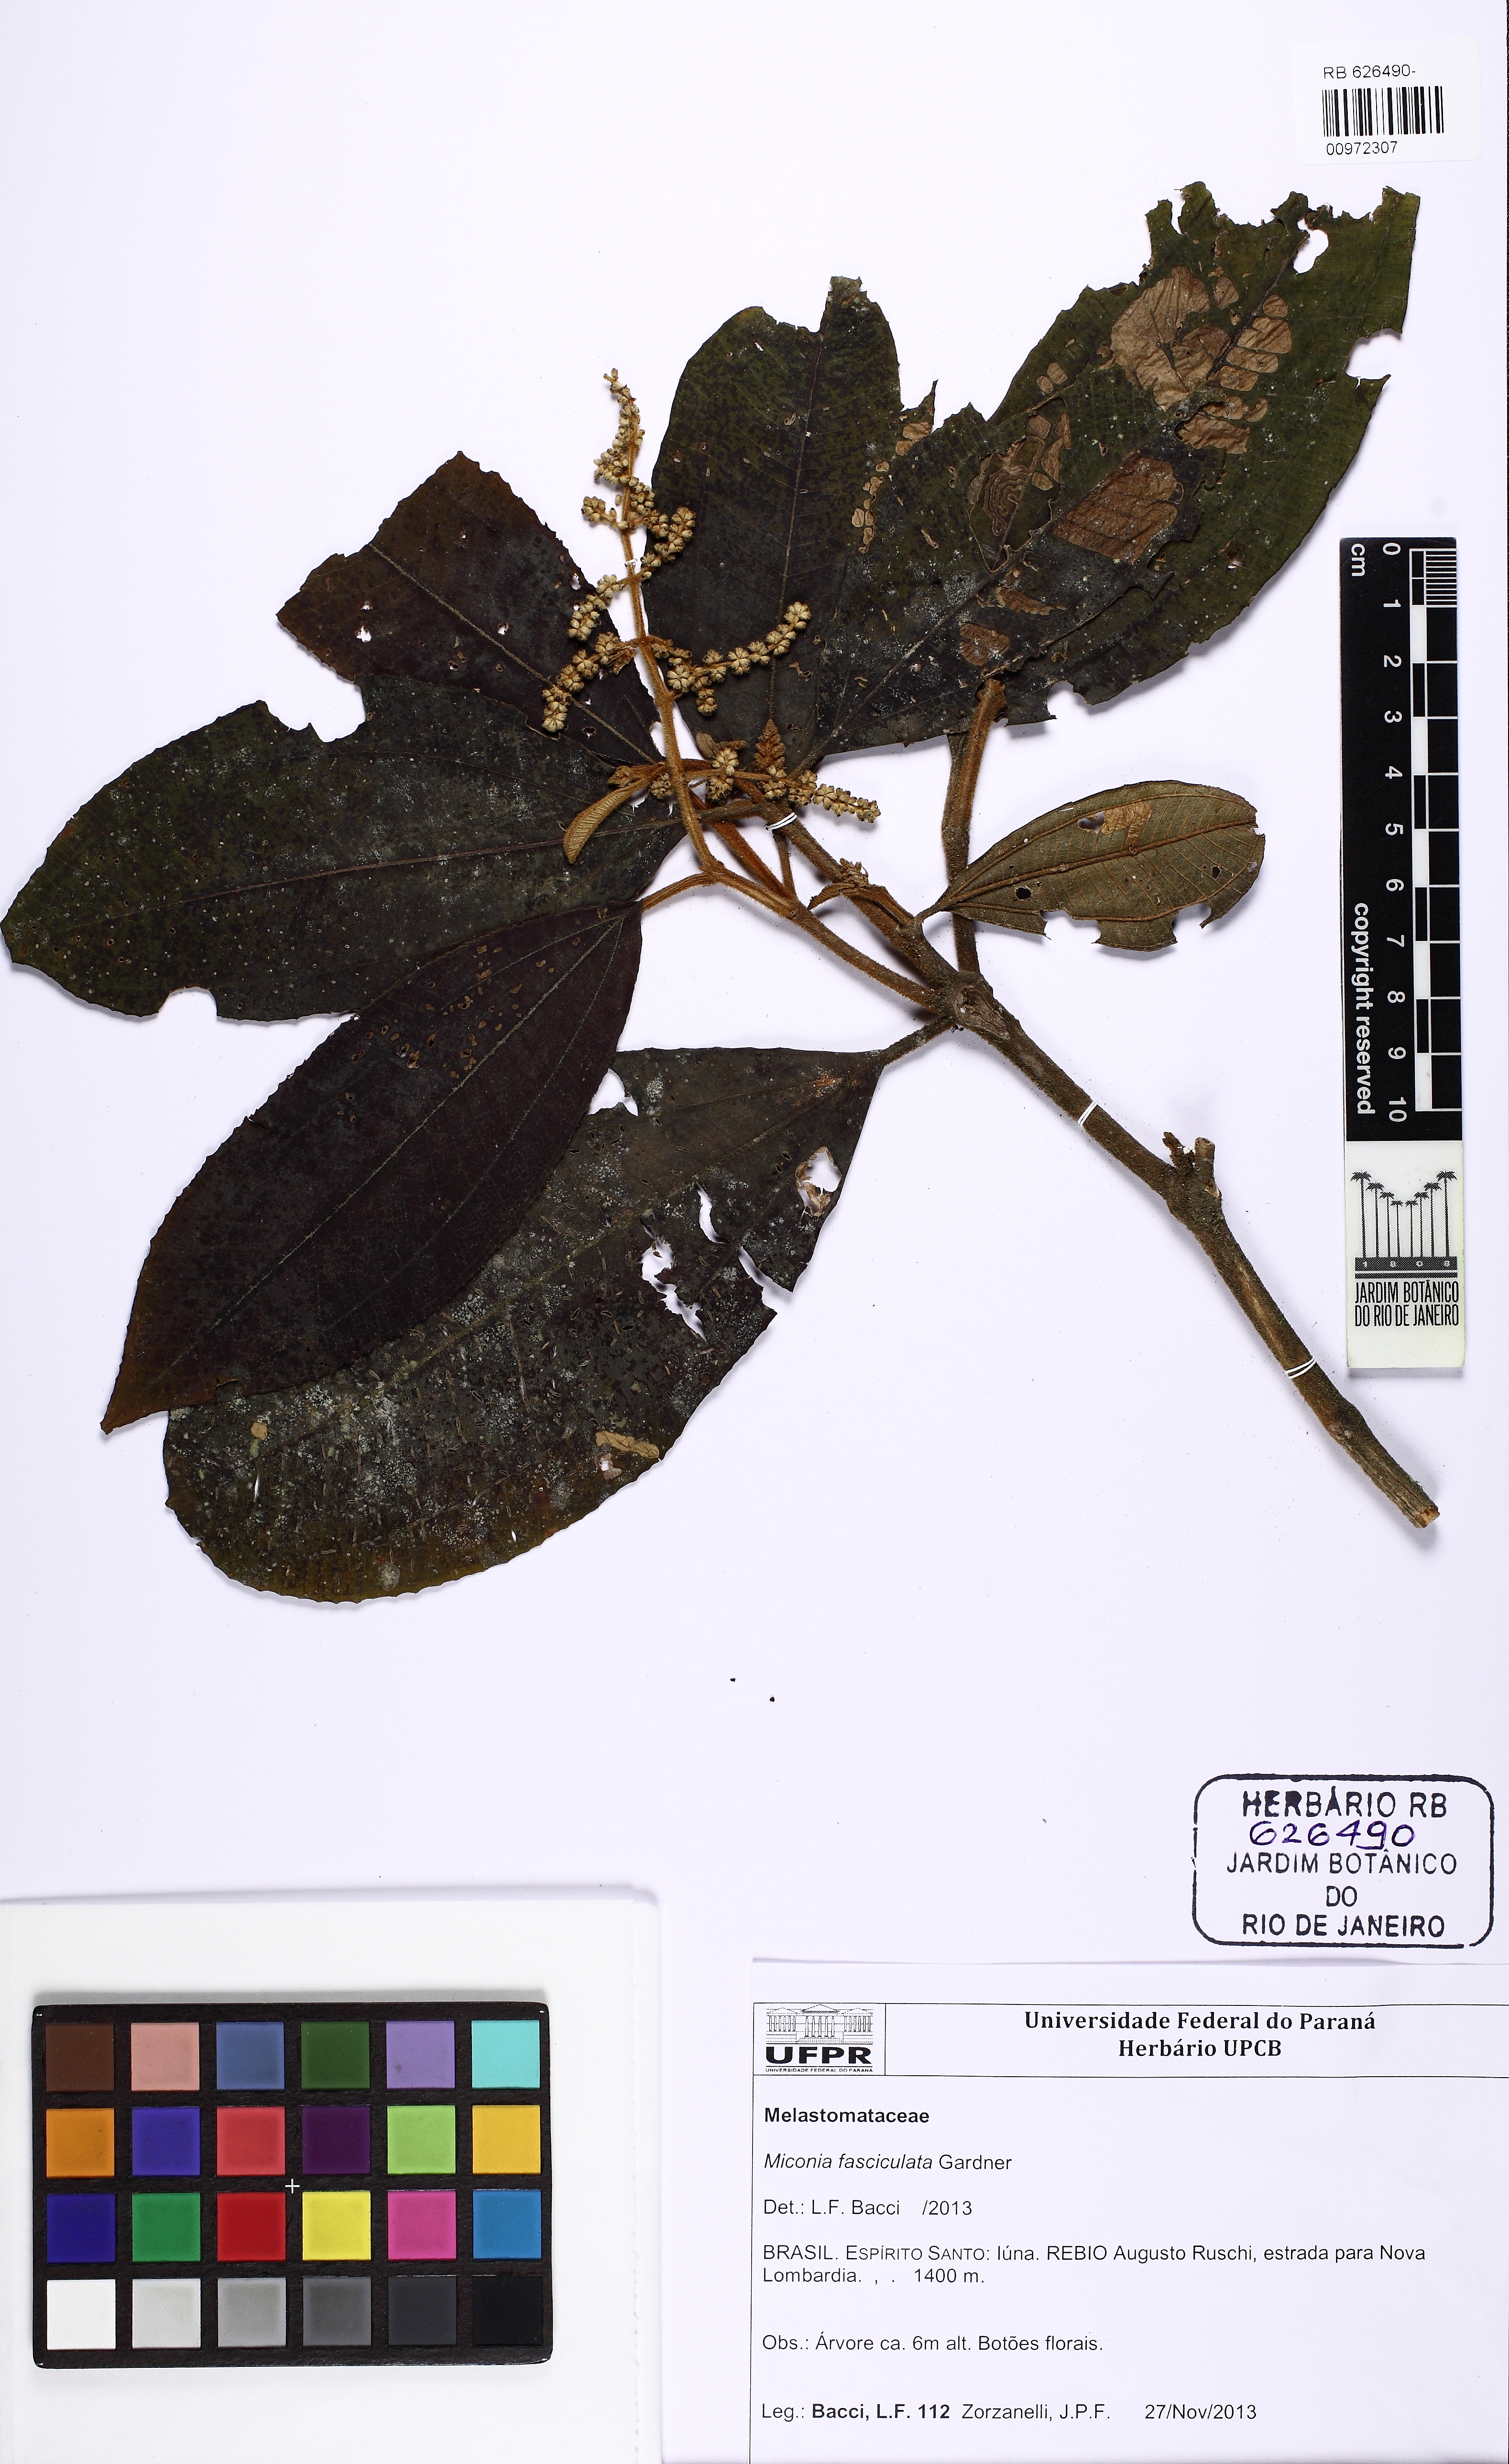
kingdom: Plantae
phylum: Tracheophyta
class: Magnoliopsida
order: Myrtales
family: Melastomataceae
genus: Miconia
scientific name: Miconia fasciculata
